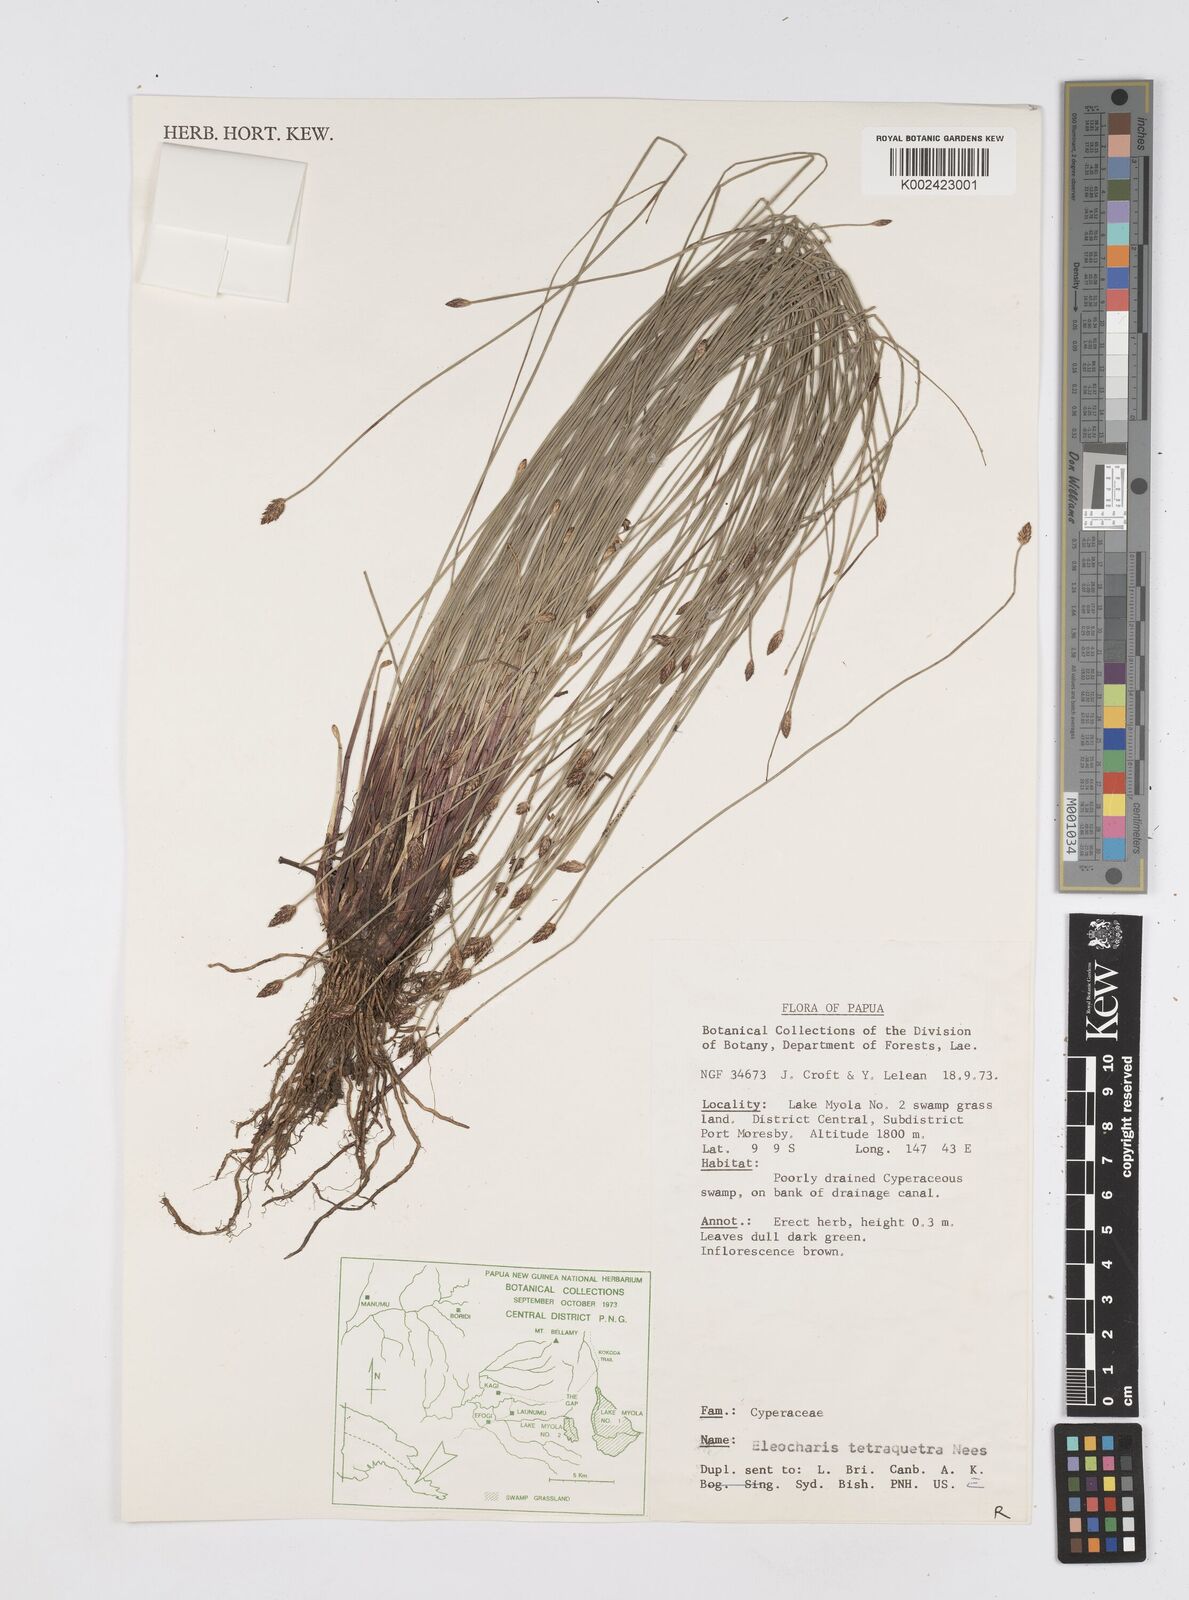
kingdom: Plantae
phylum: Tracheophyta
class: Liliopsida
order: Poales
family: Cyperaceae
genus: Eleocharis
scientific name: Eleocharis tetraquetra
